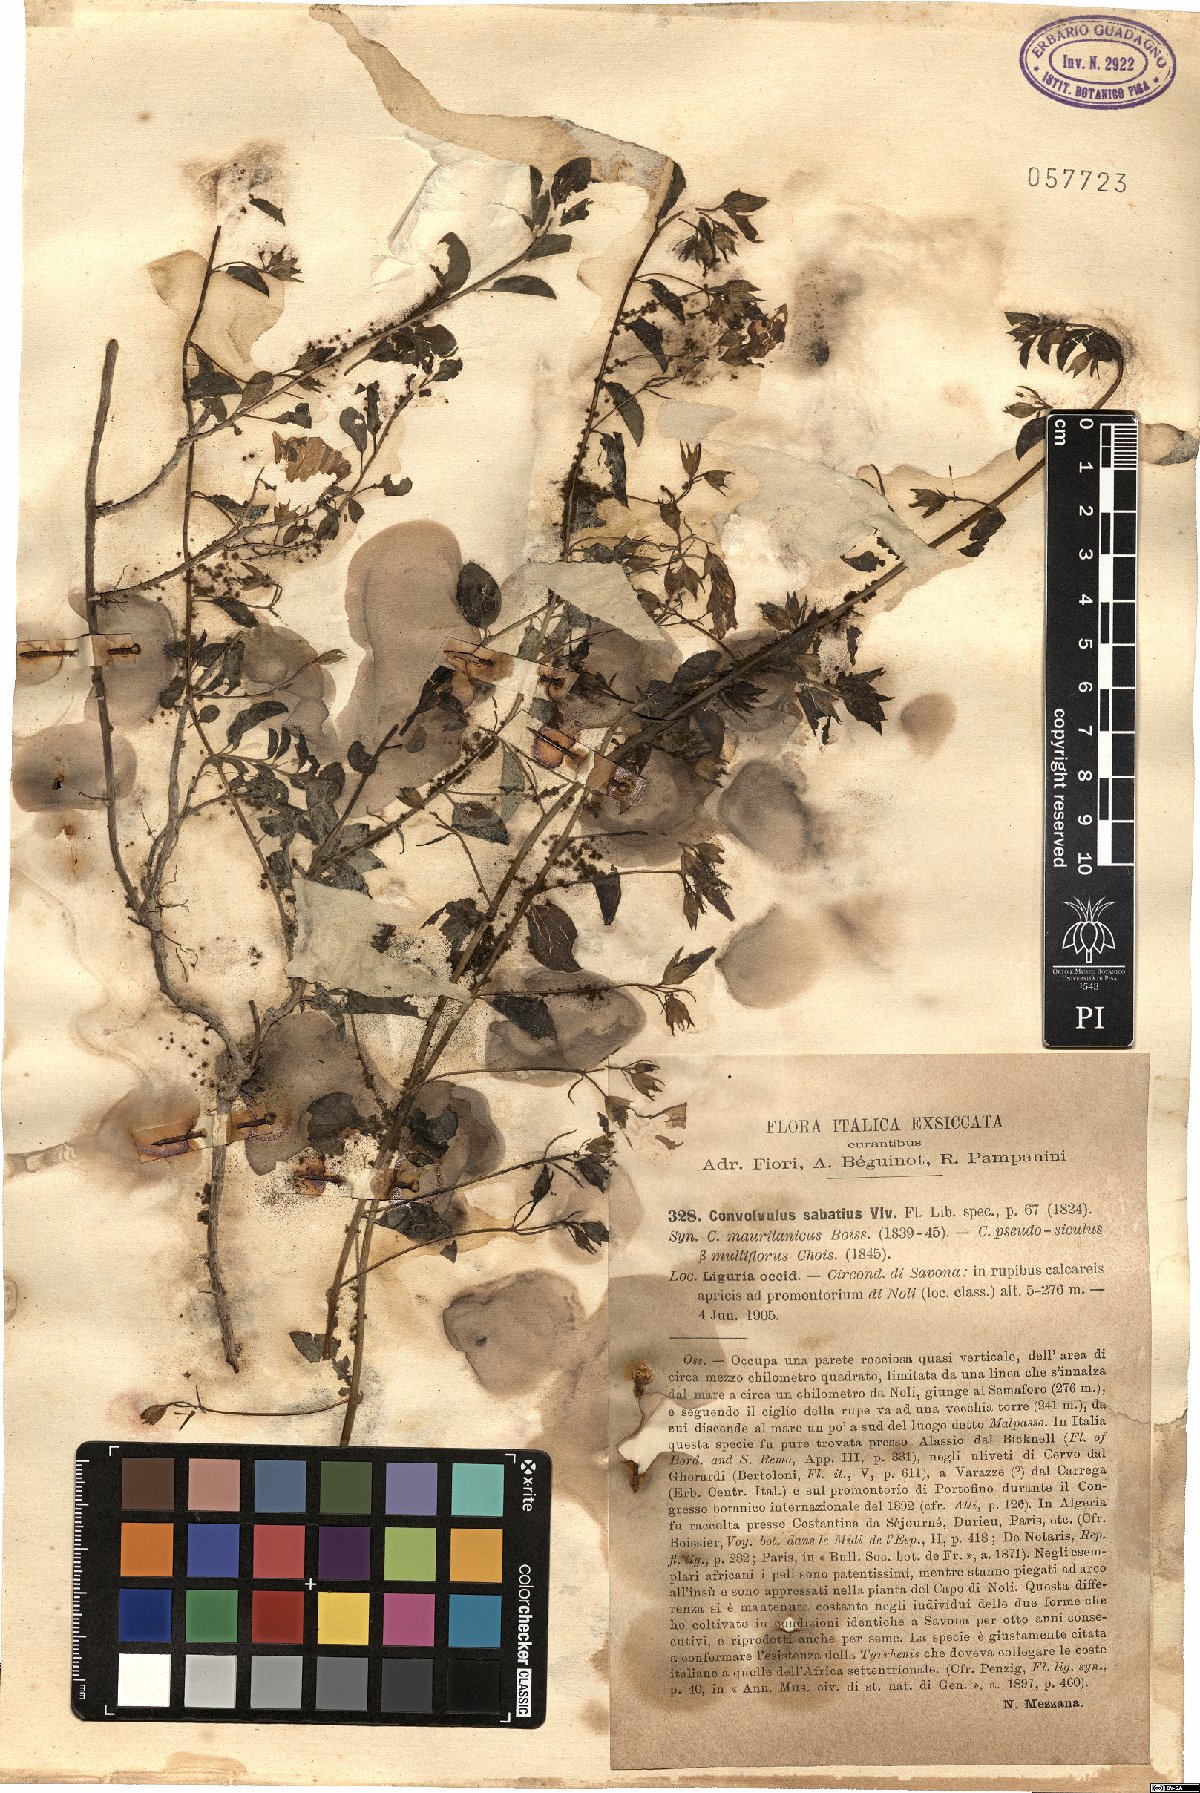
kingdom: Plantae
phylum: Tracheophyta
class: Magnoliopsida
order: Solanales
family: Convolvulaceae
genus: Convolvulus
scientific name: Convolvulus sabatius
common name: Ground blue-convolvulus
